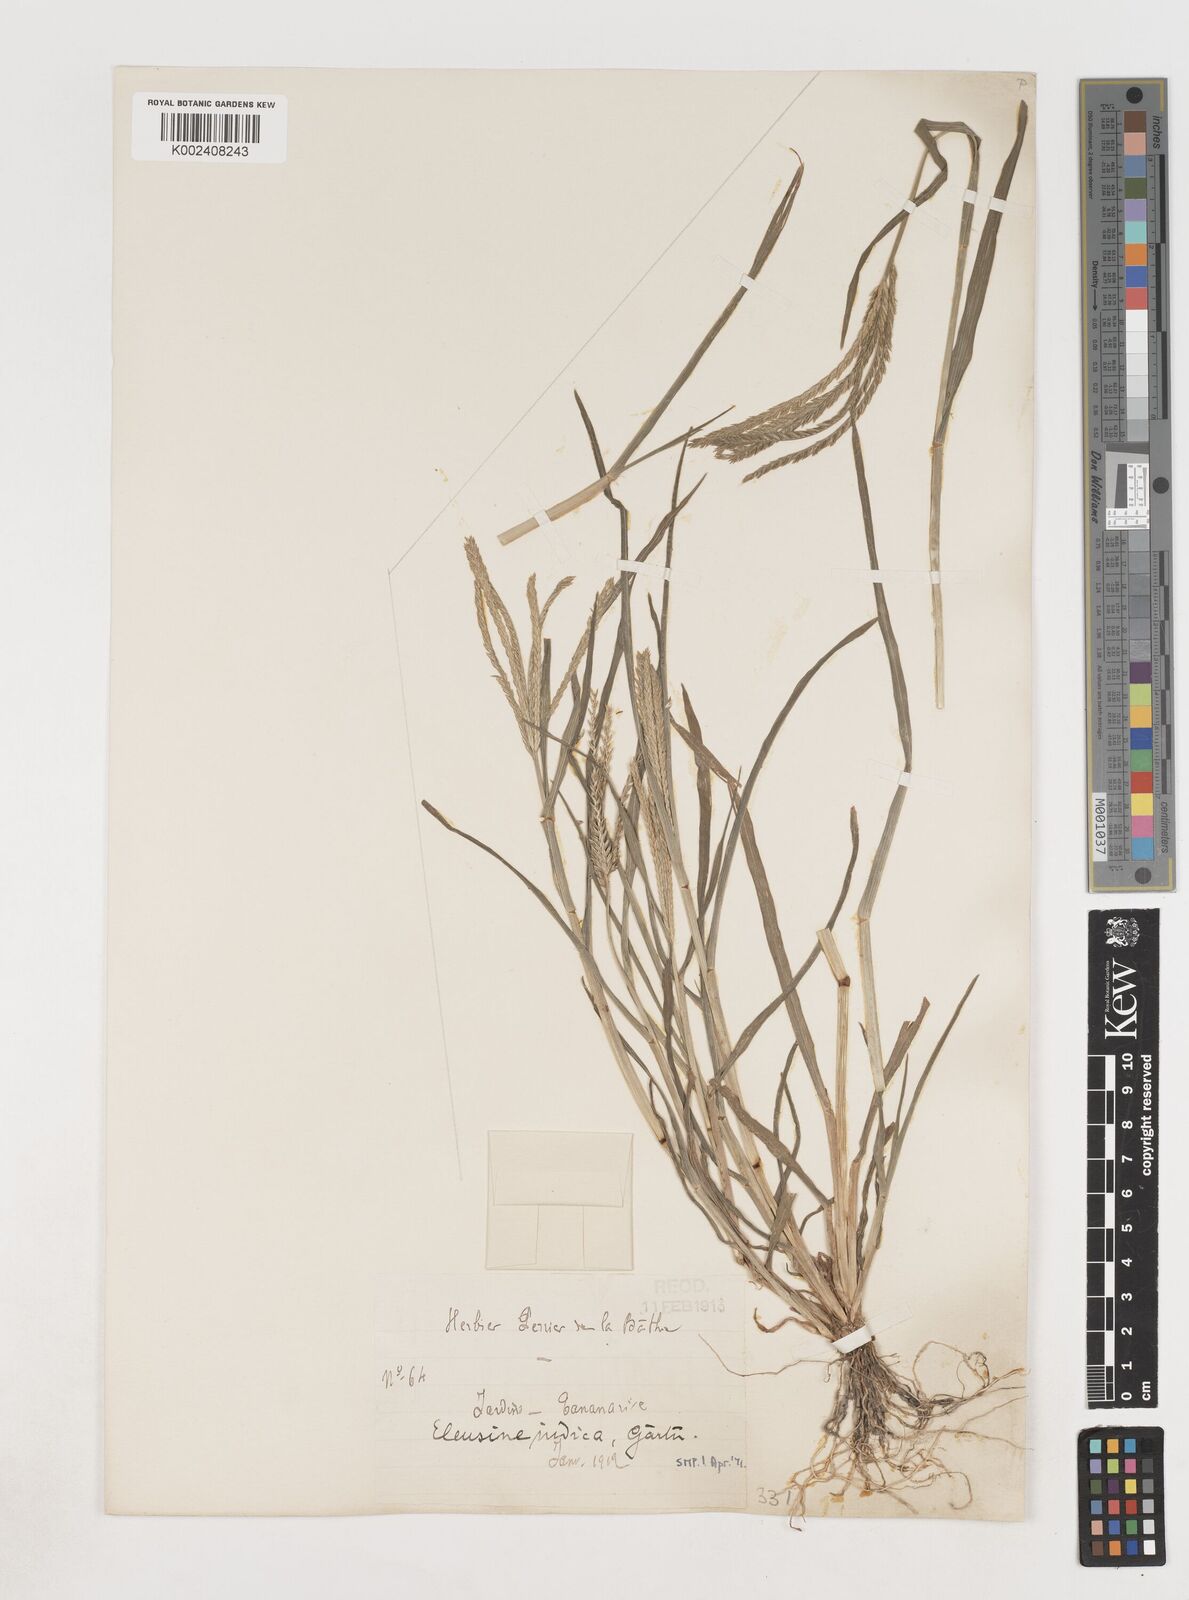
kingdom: Plantae
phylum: Tracheophyta
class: Liliopsida
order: Poales
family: Poaceae
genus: Eleusine
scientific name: Eleusine indica
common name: Yard-grass
